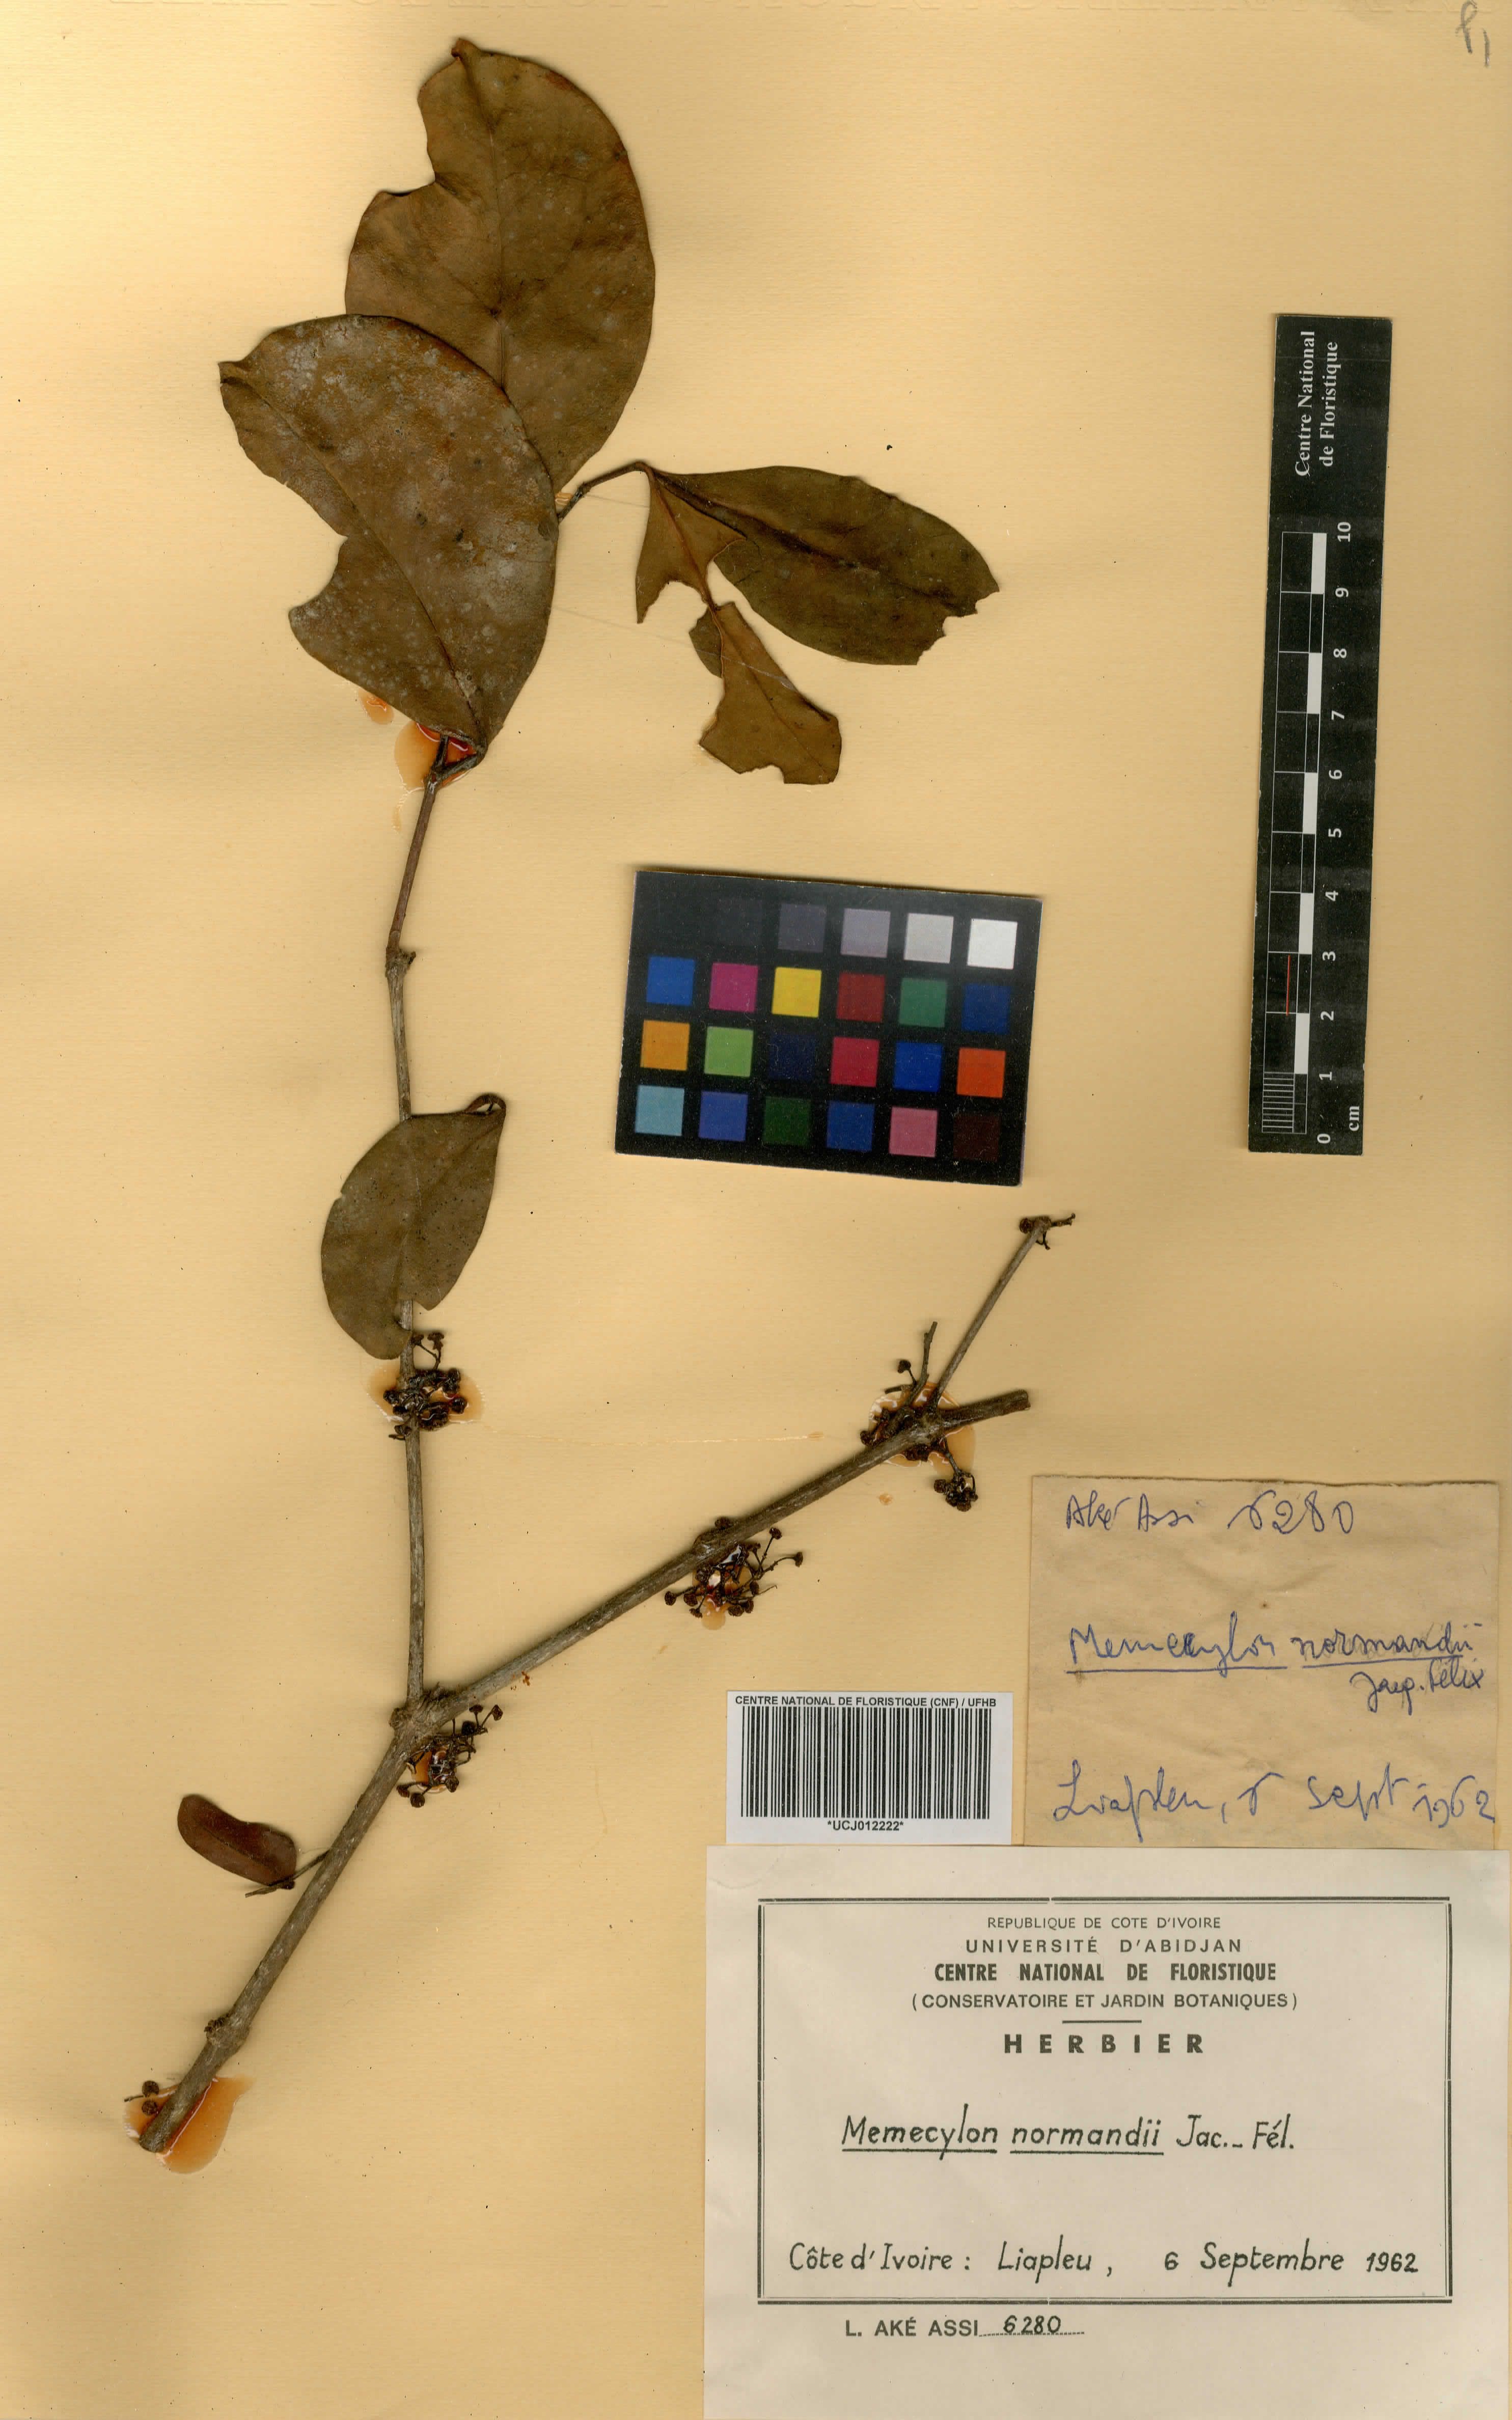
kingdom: Plantae
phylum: Tracheophyta
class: Magnoliopsida
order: Myrtales
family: Melastomataceae
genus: Memecylon
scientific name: Memecylon normandii
